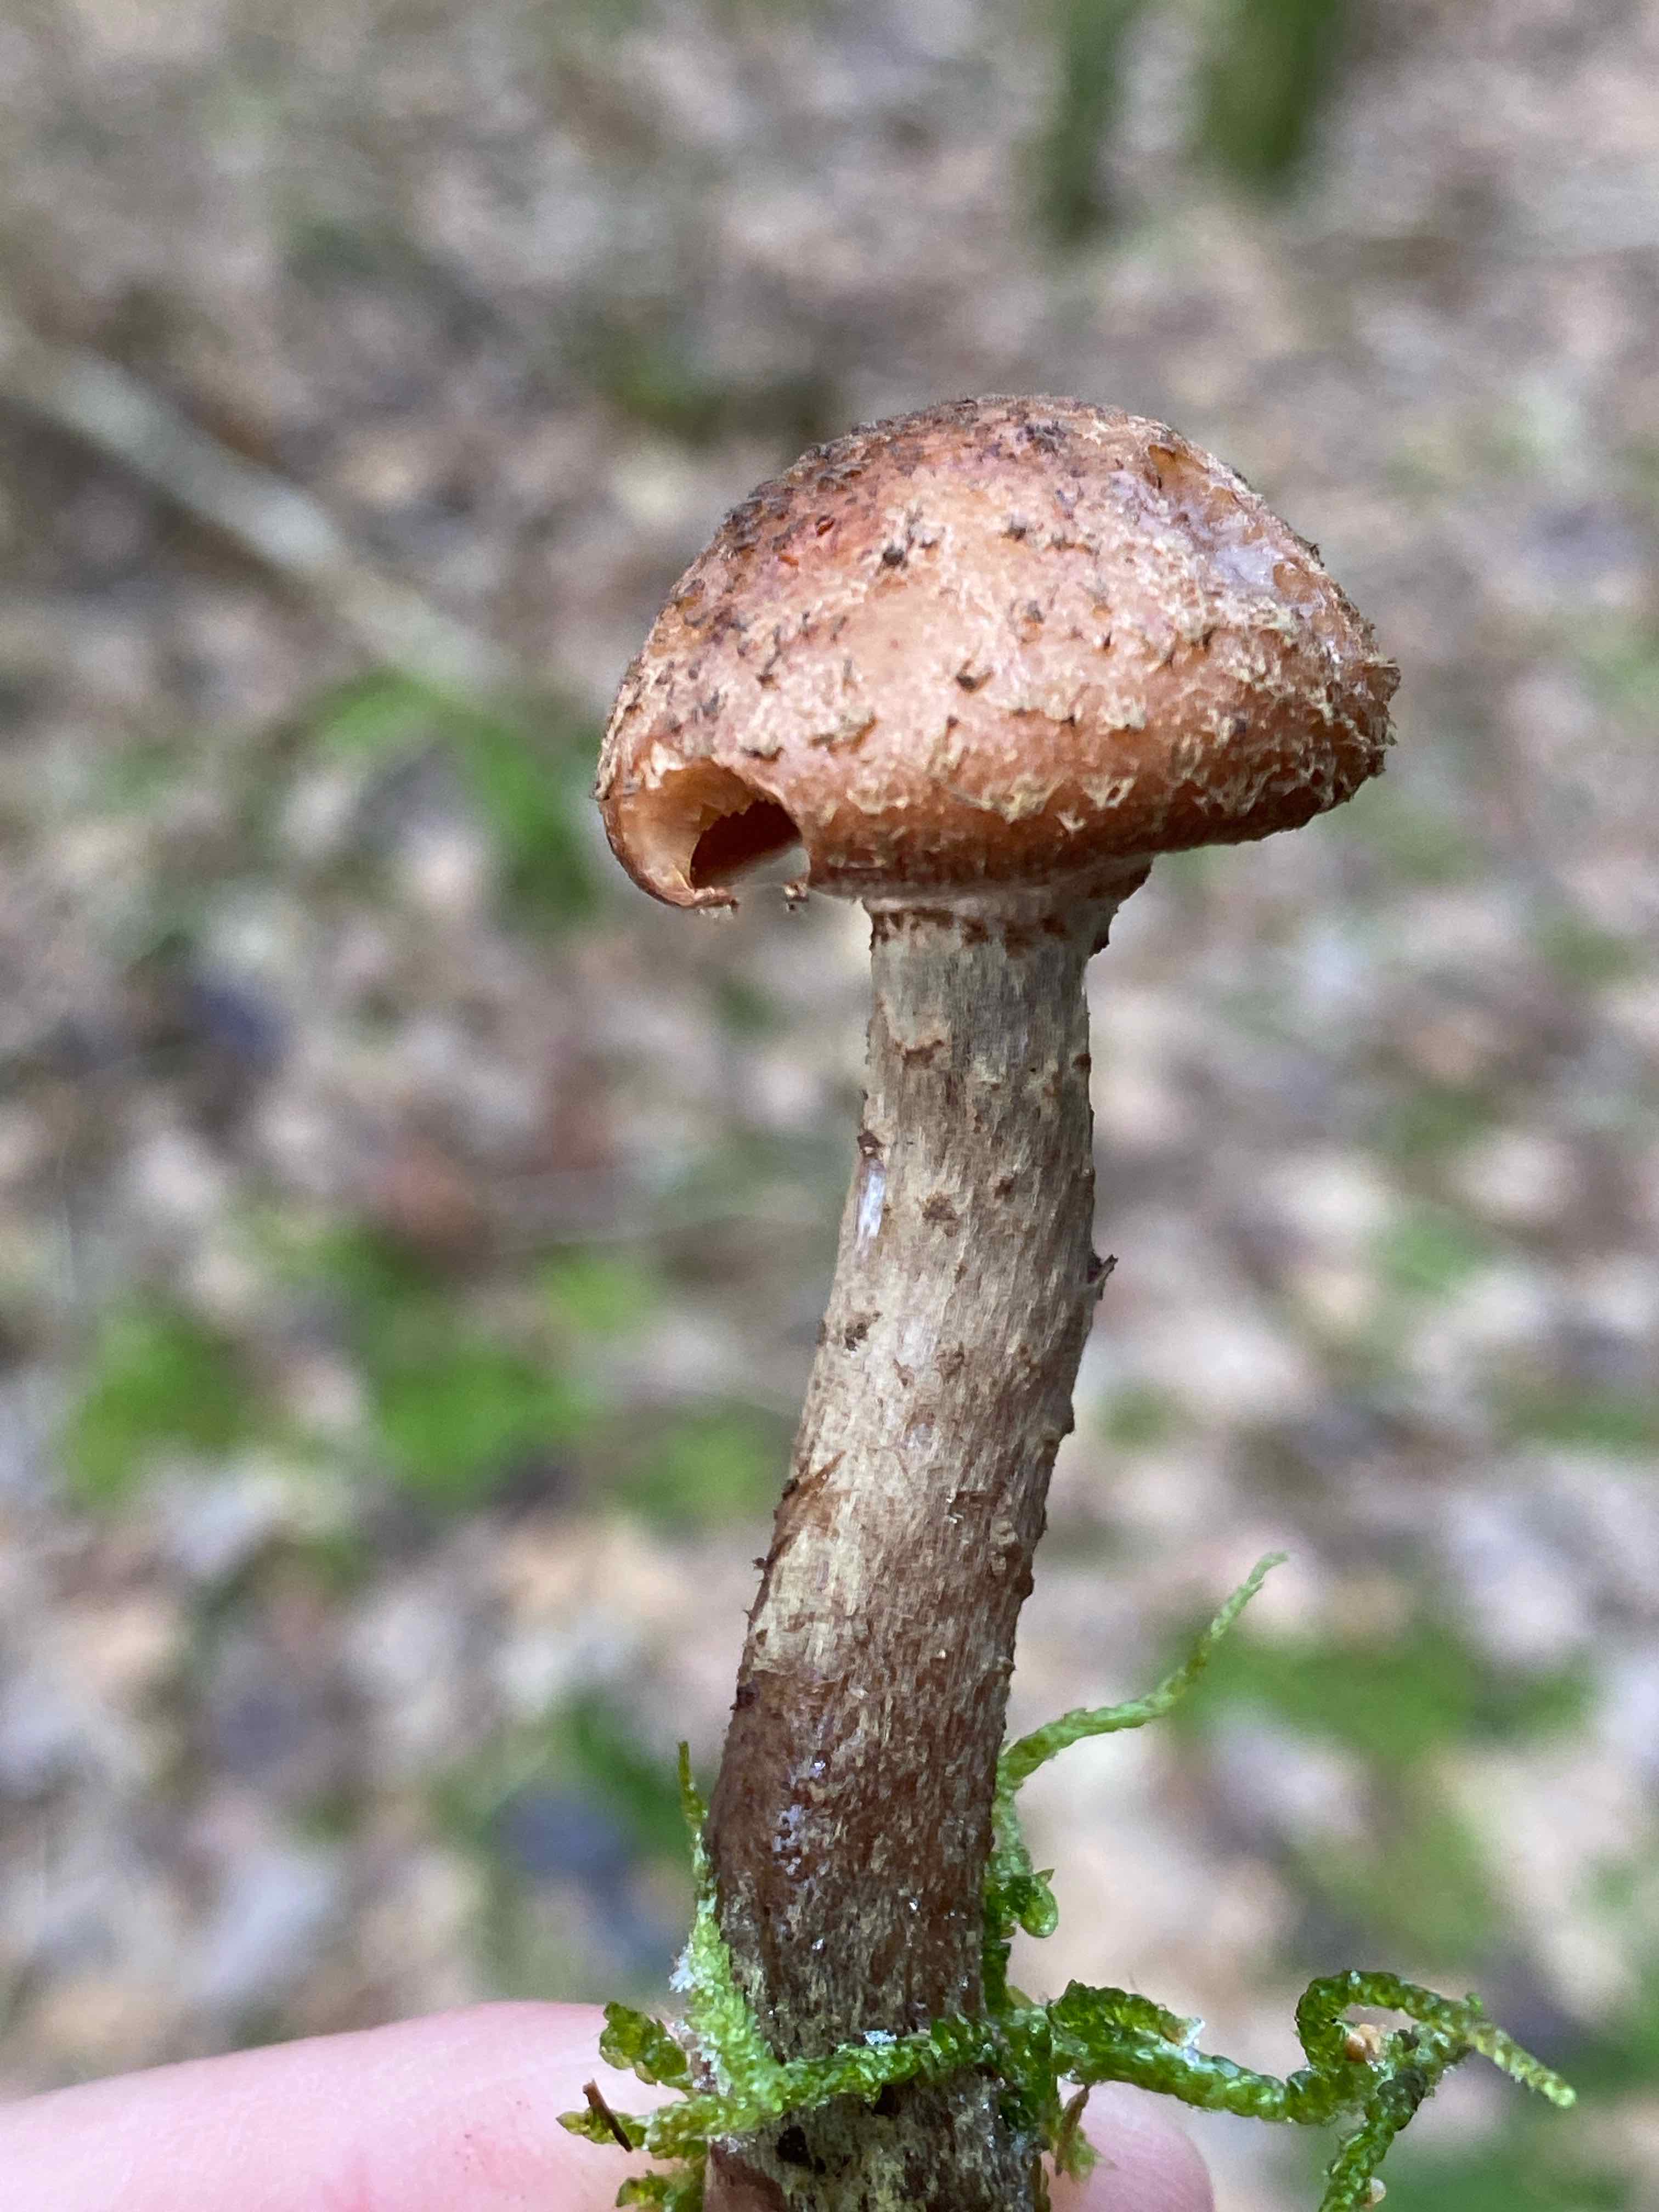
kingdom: Fungi
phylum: Basidiomycota
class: Agaricomycetes
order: Agaricales
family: Physalacriaceae
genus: Armillaria
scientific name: Armillaria ostoyae
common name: mørk honningsvamp
